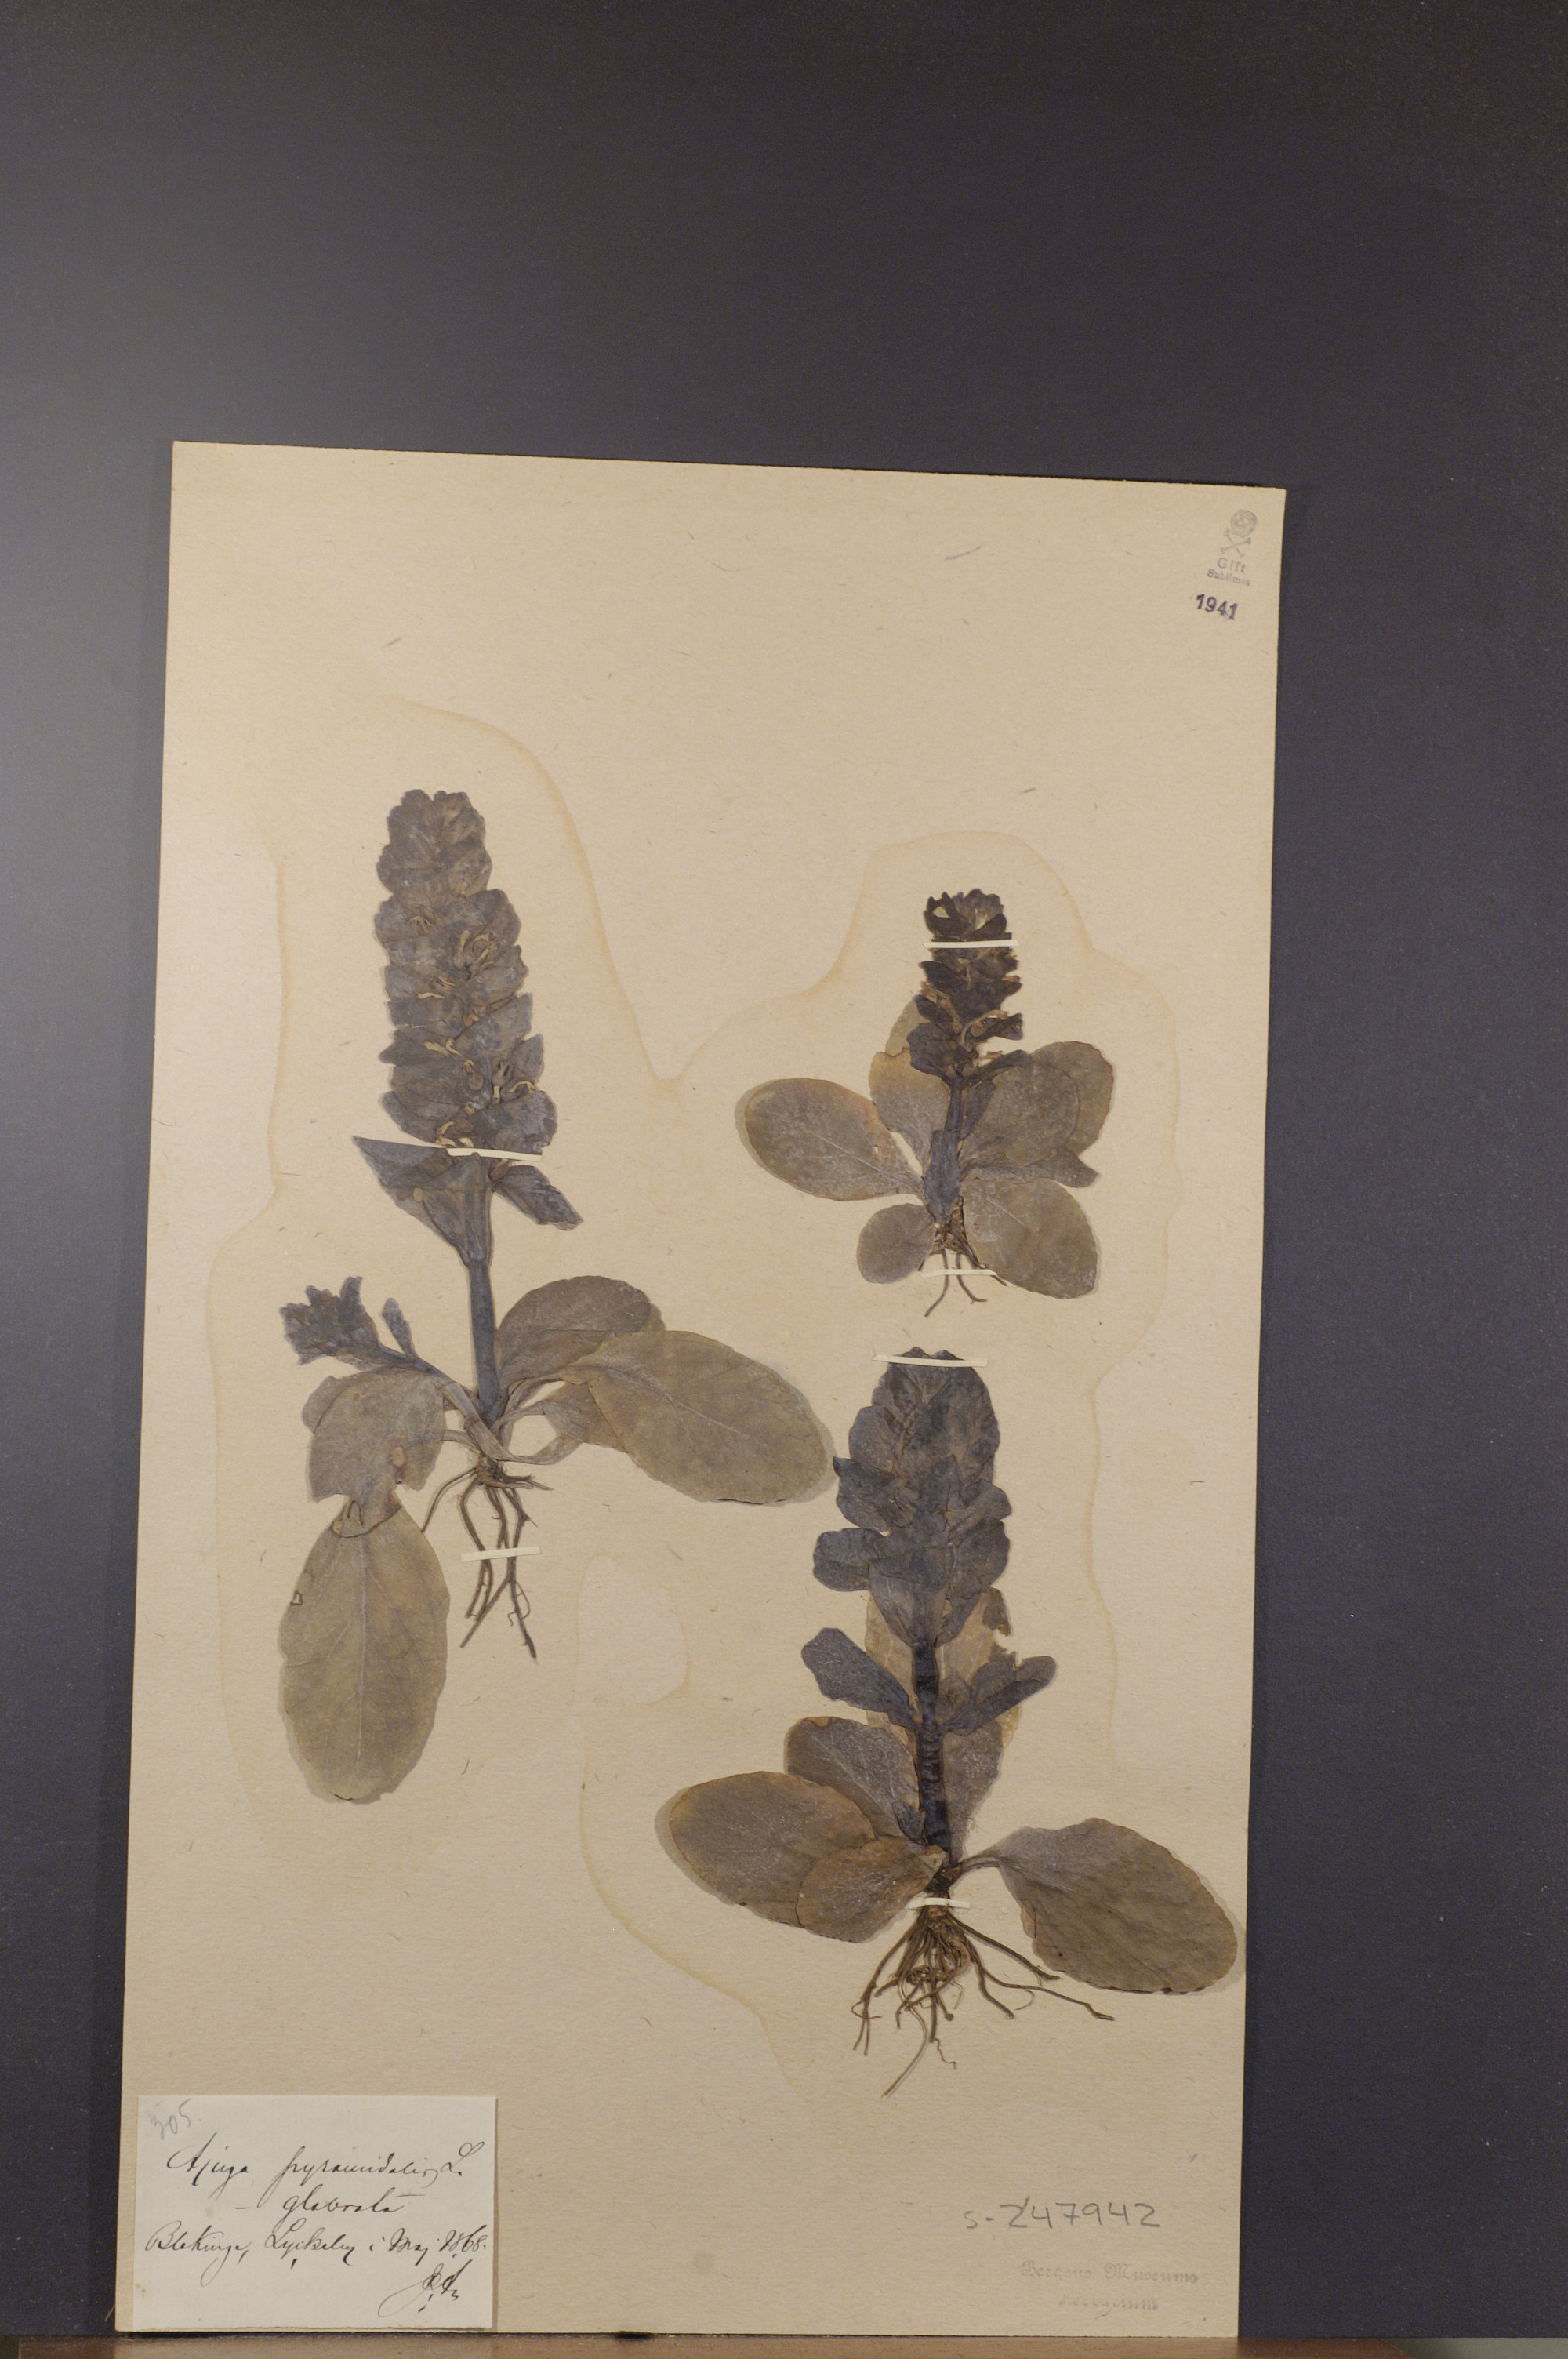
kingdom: Plantae
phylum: Tracheophyta
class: Magnoliopsida
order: Lamiales
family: Lamiaceae
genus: Ajuga
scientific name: Ajuga pyramidalis
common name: Pyramid bugle
